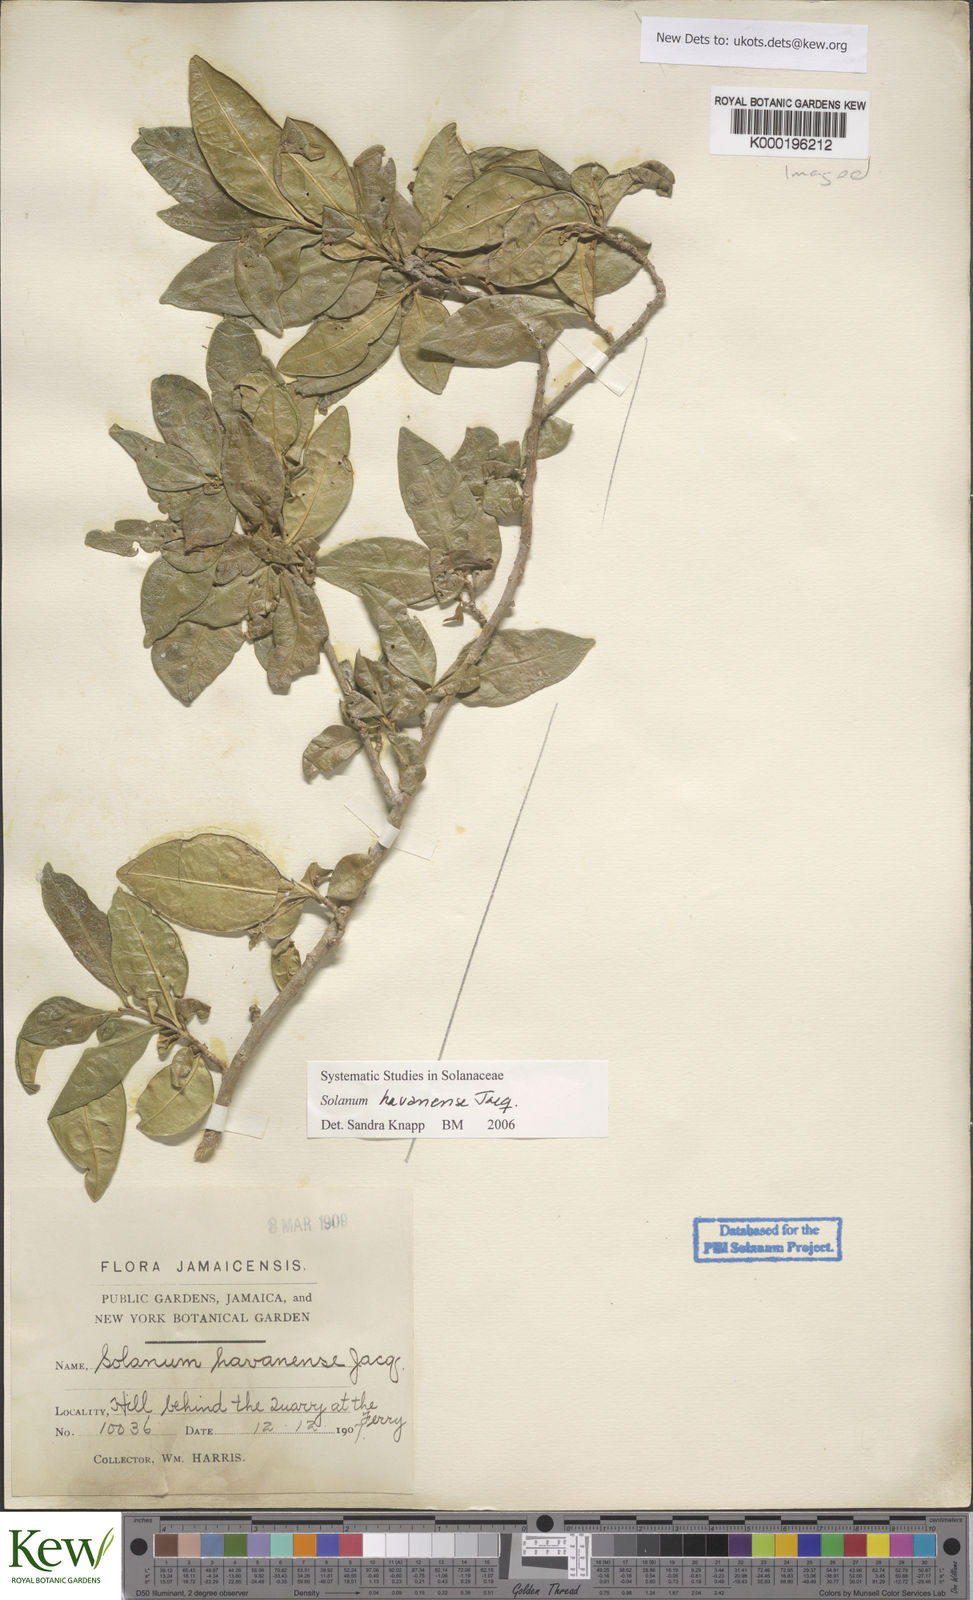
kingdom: Plantae
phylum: Tracheophyta
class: Magnoliopsida
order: Solanales
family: Solanaceae
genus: Solanum
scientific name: Solanum havanense
